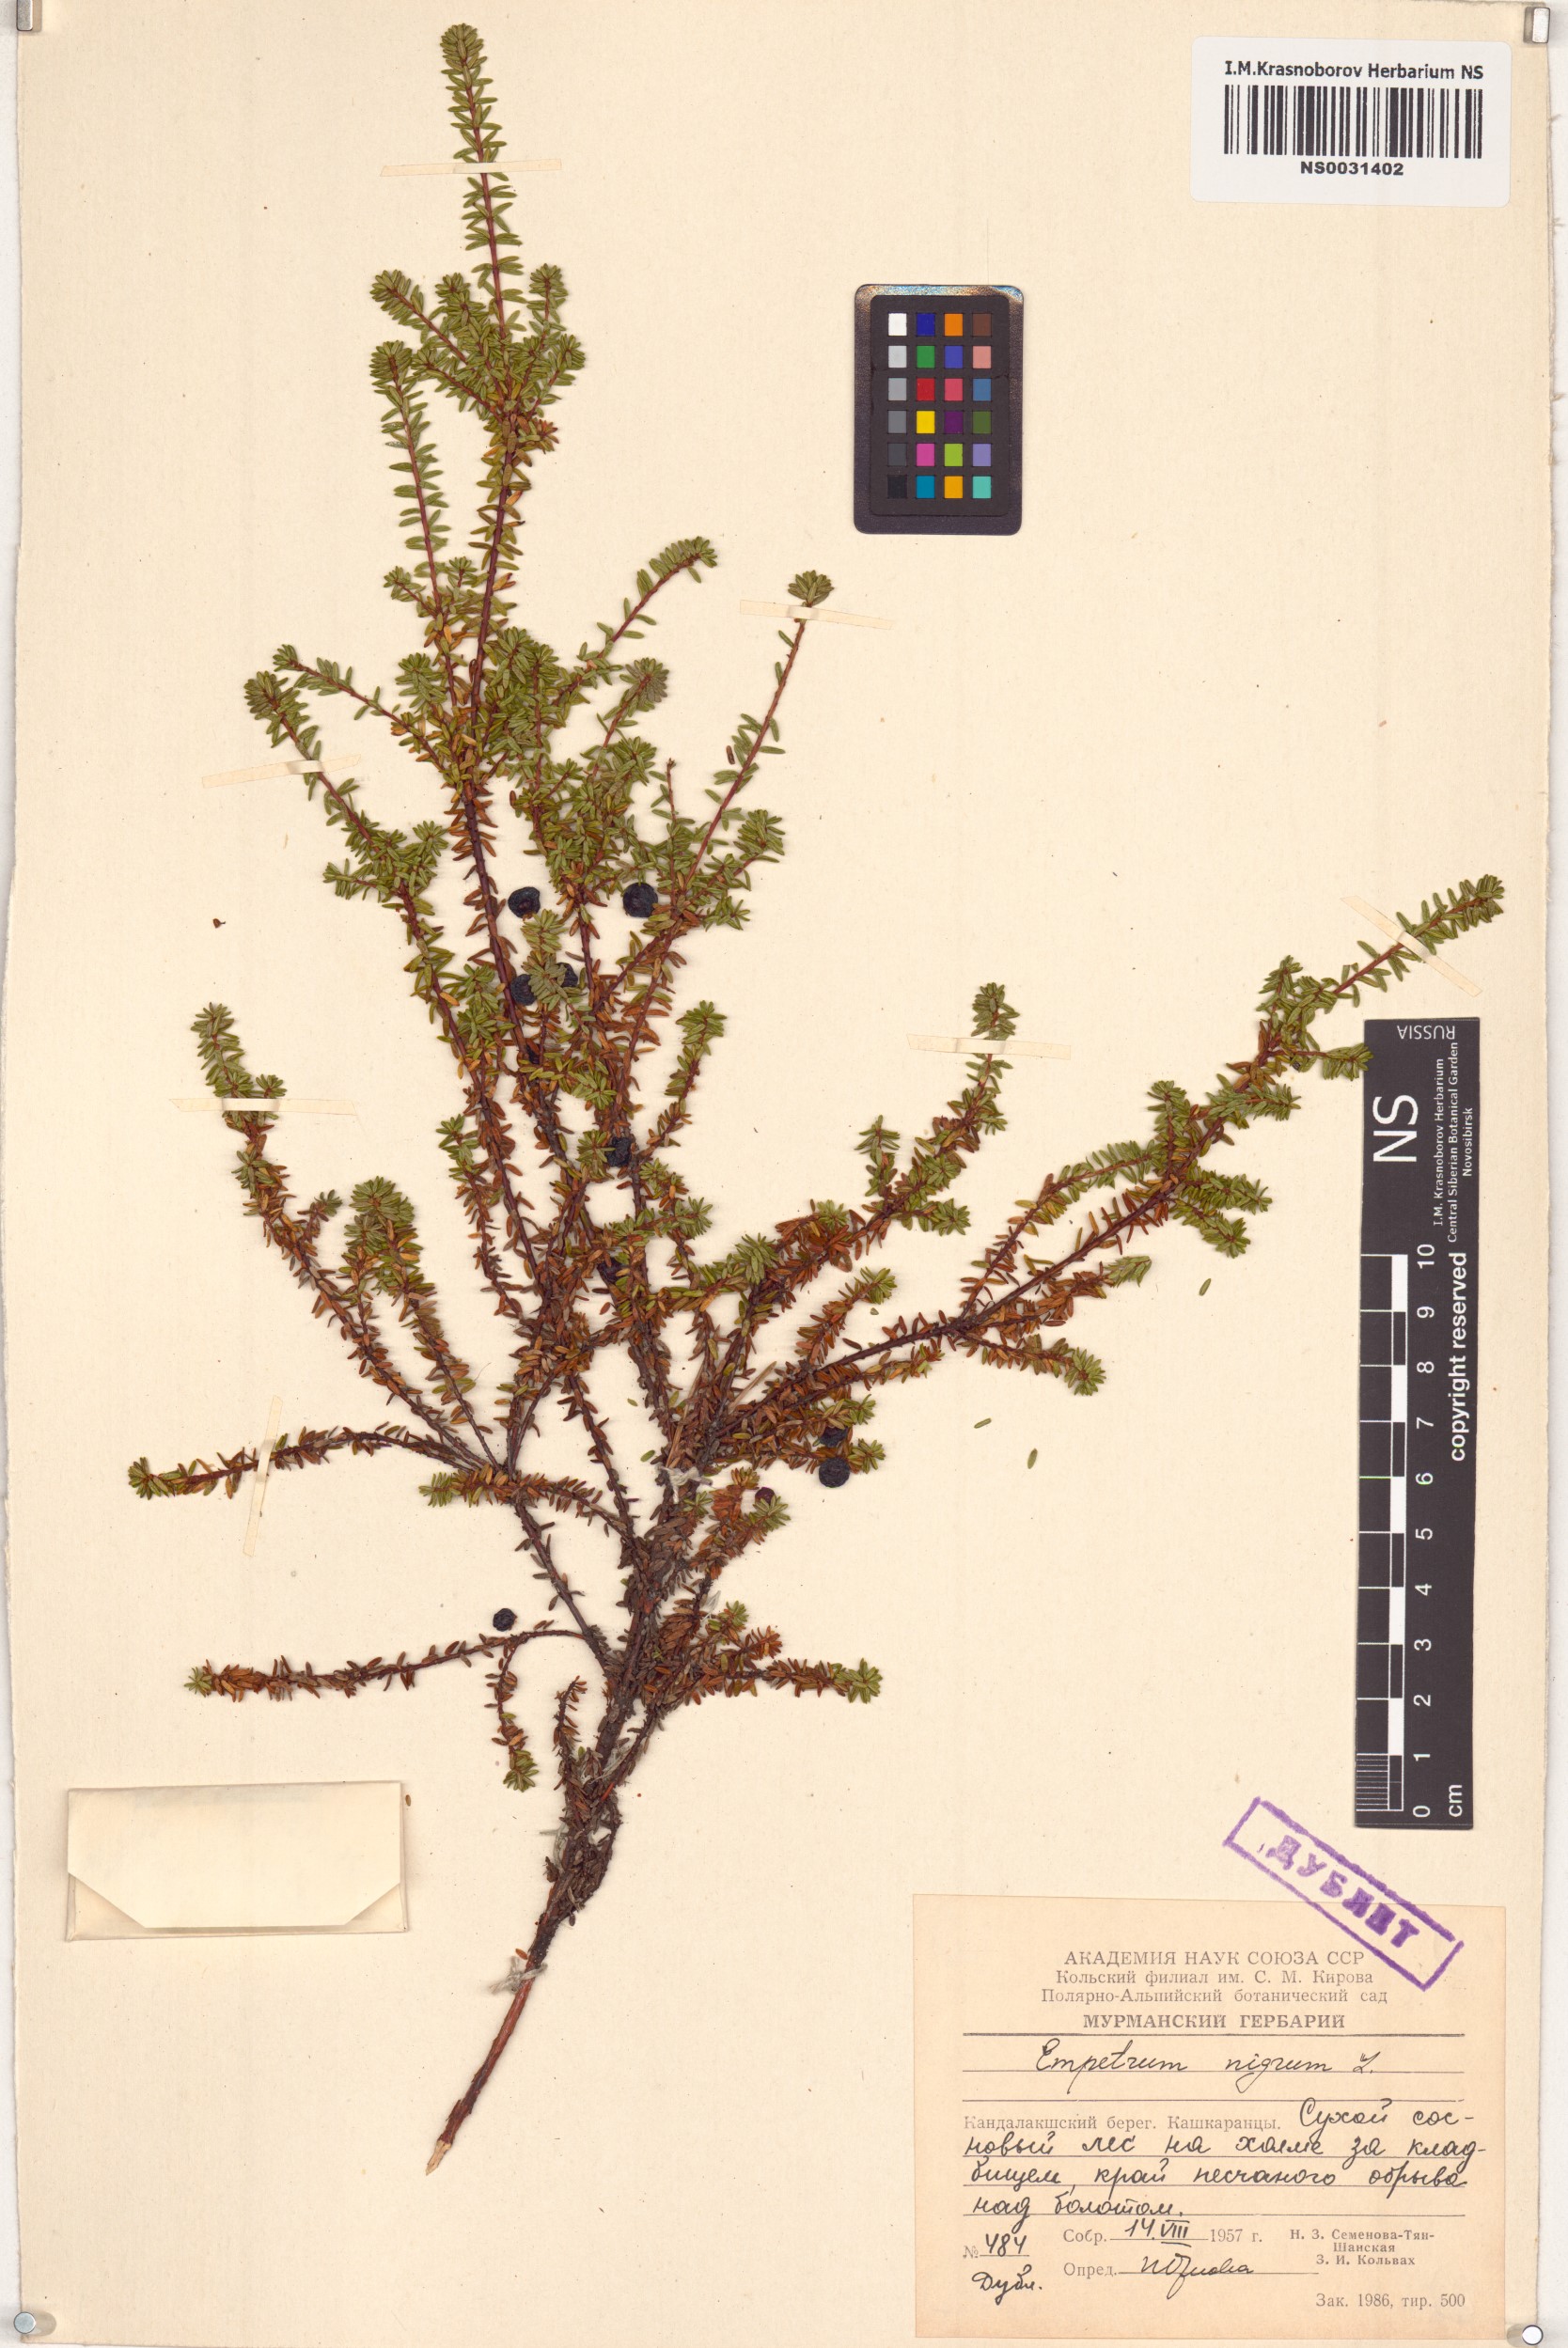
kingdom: Plantae
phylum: Tracheophyta
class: Magnoliopsida
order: Ericales
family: Ericaceae
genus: Empetrum
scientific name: Empetrum nigrum
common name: Black crowberry
